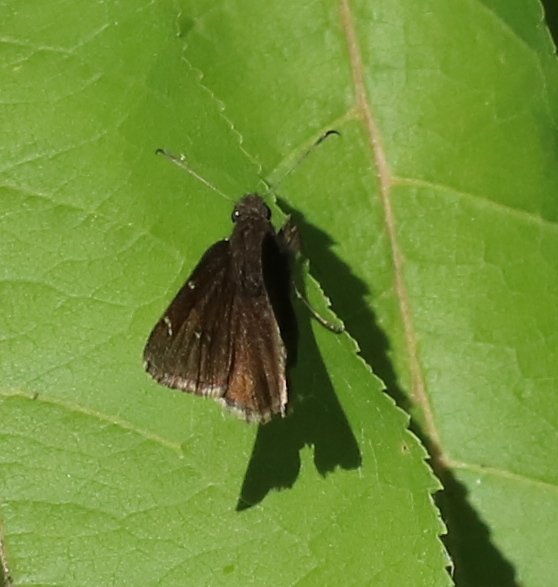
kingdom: Animalia
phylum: Arthropoda
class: Insecta
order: Lepidoptera
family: Hesperiidae
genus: Autochton
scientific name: Autochton
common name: Northern Cloudywing
